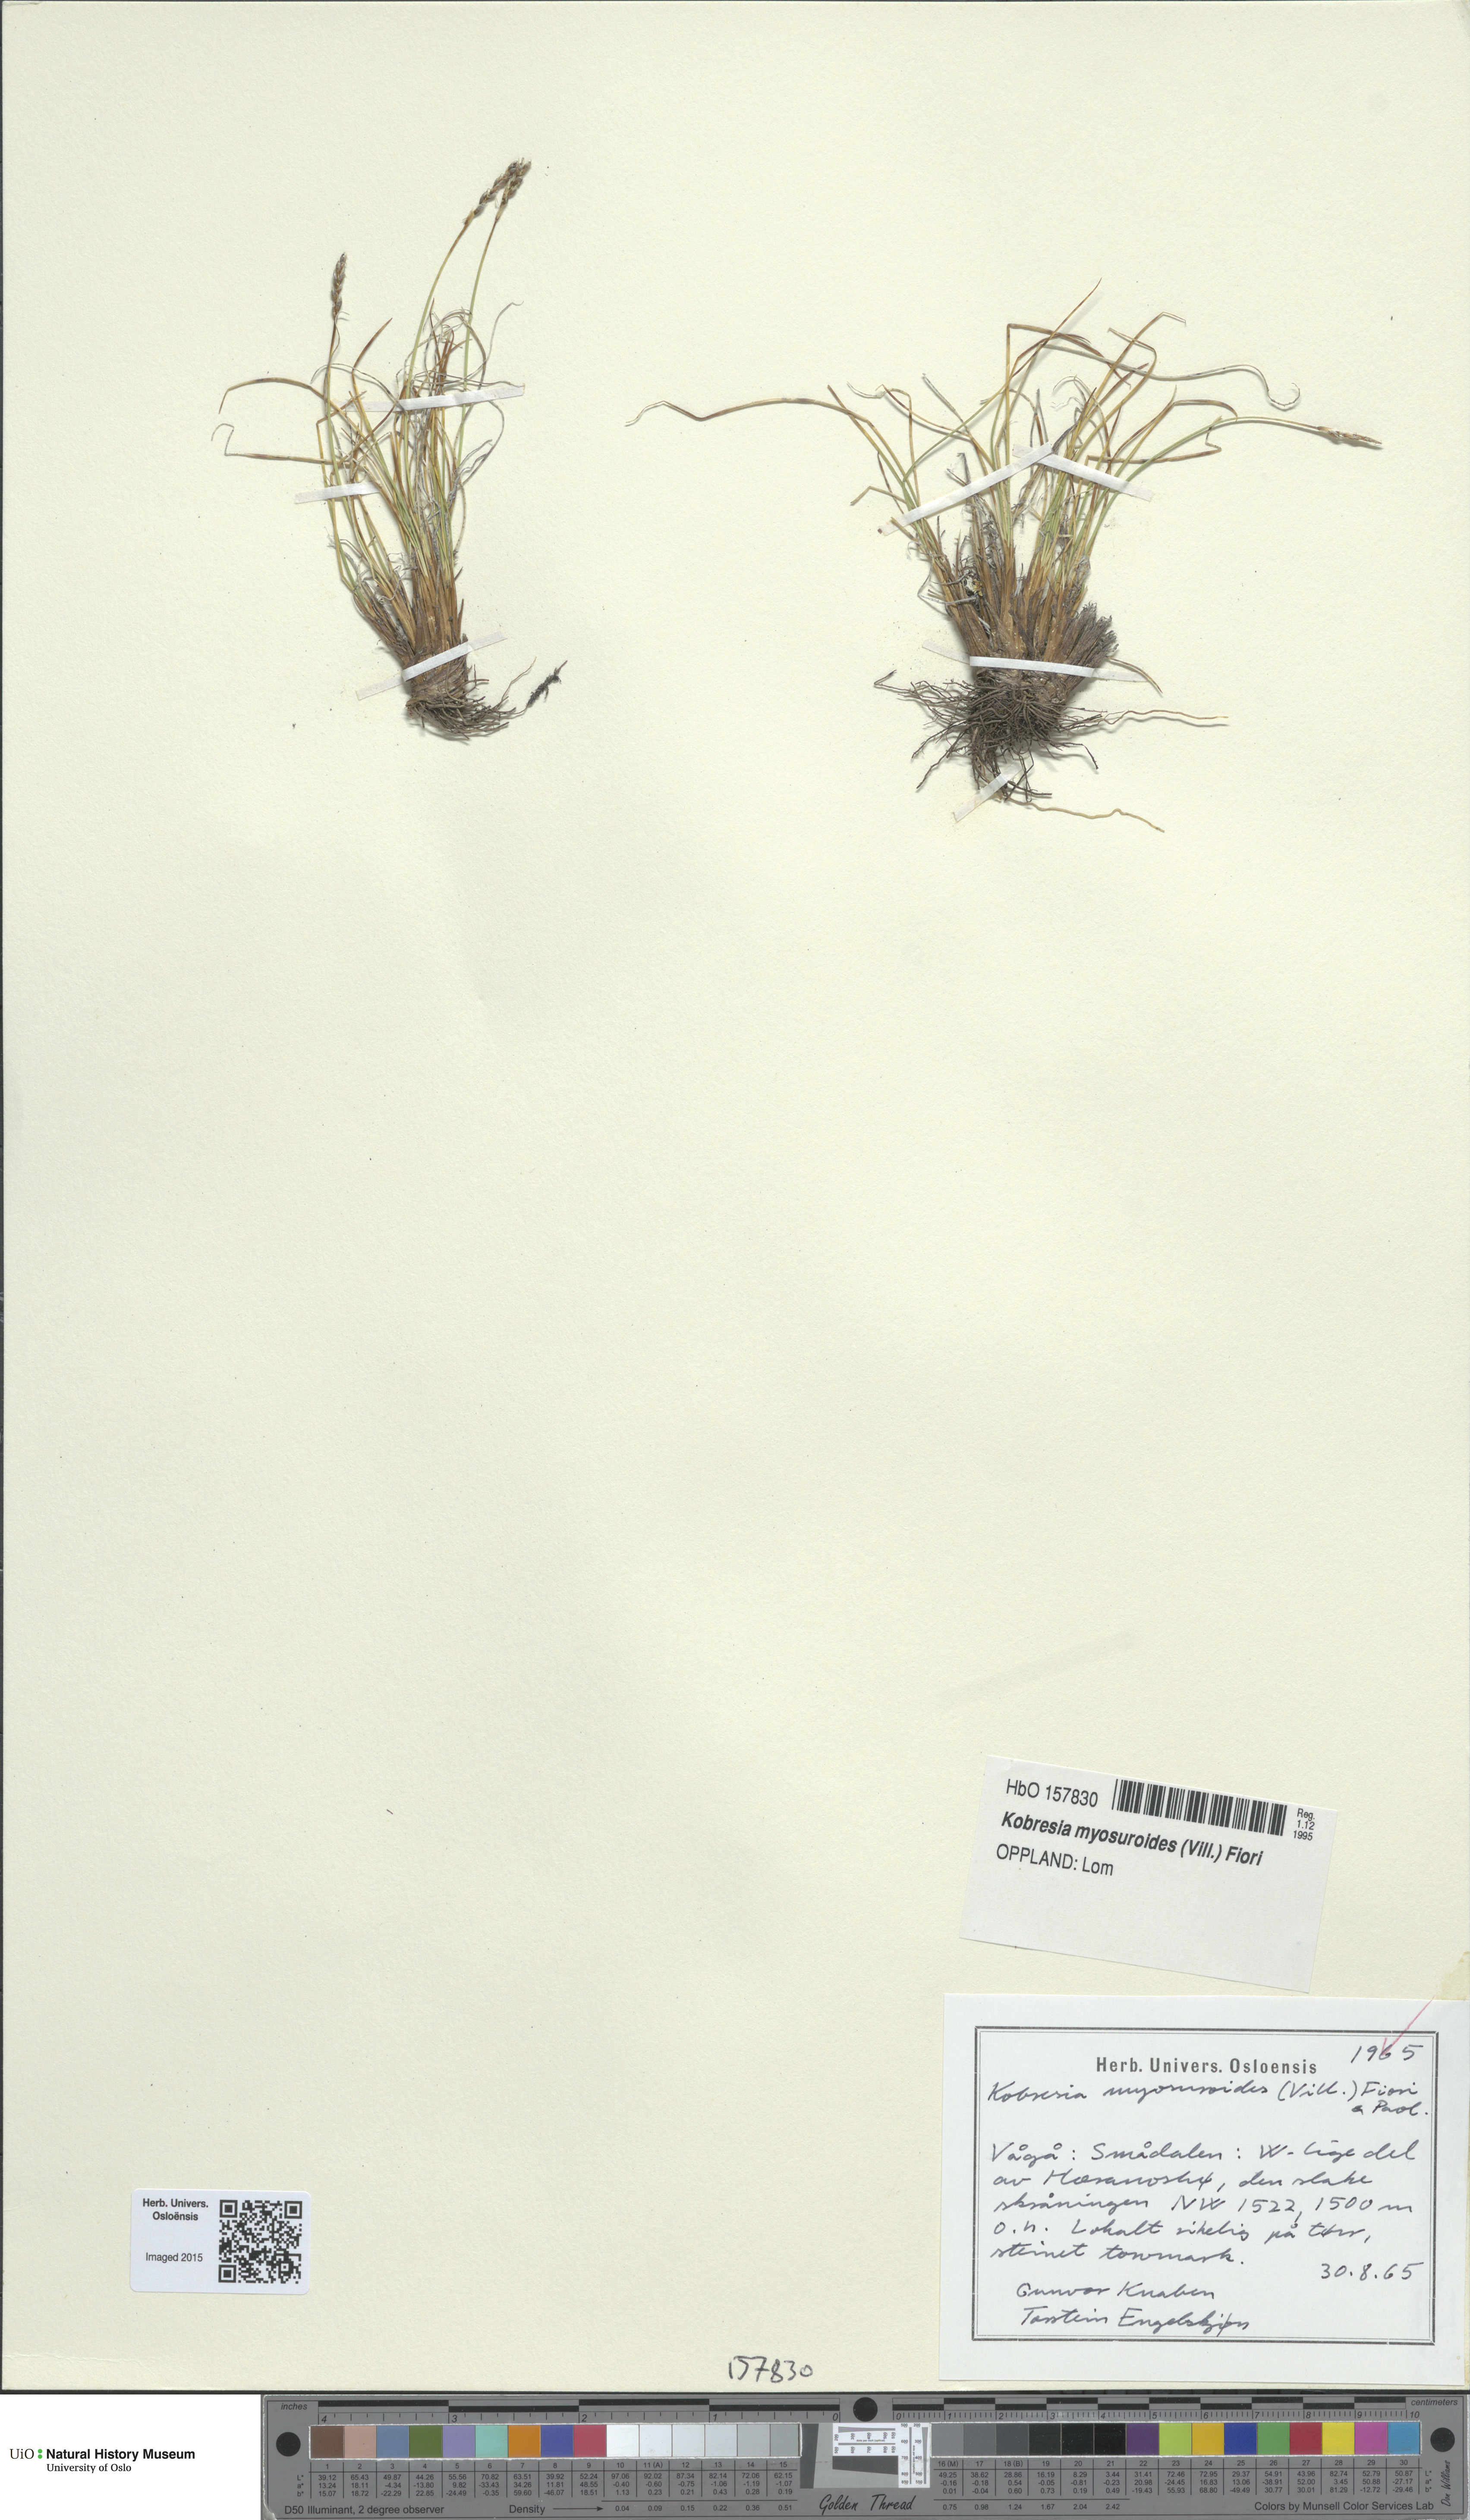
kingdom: Plantae
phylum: Tracheophyta
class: Liliopsida
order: Poales
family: Cyperaceae
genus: Carex
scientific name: Carex myosuroides
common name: Bellard's bog sedge
